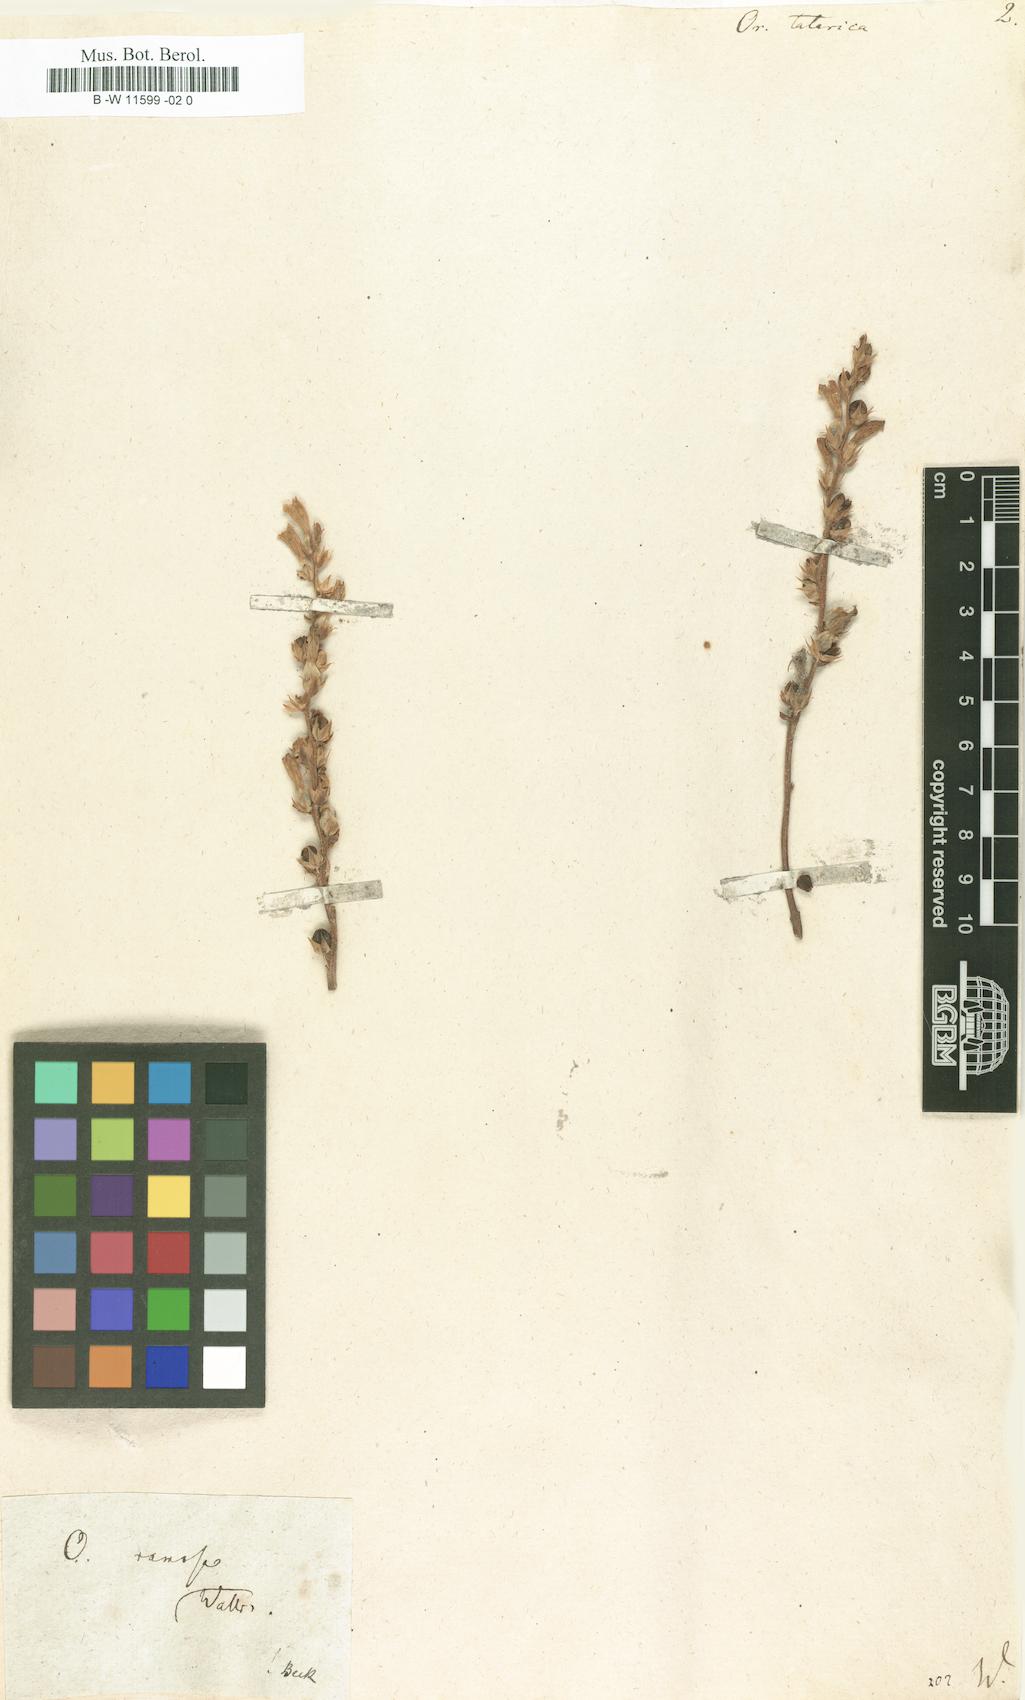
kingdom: Plantae
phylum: Tracheophyta
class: Magnoliopsida
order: Lamiales
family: Orobanchaceae
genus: Orobanche
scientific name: Orobanche
